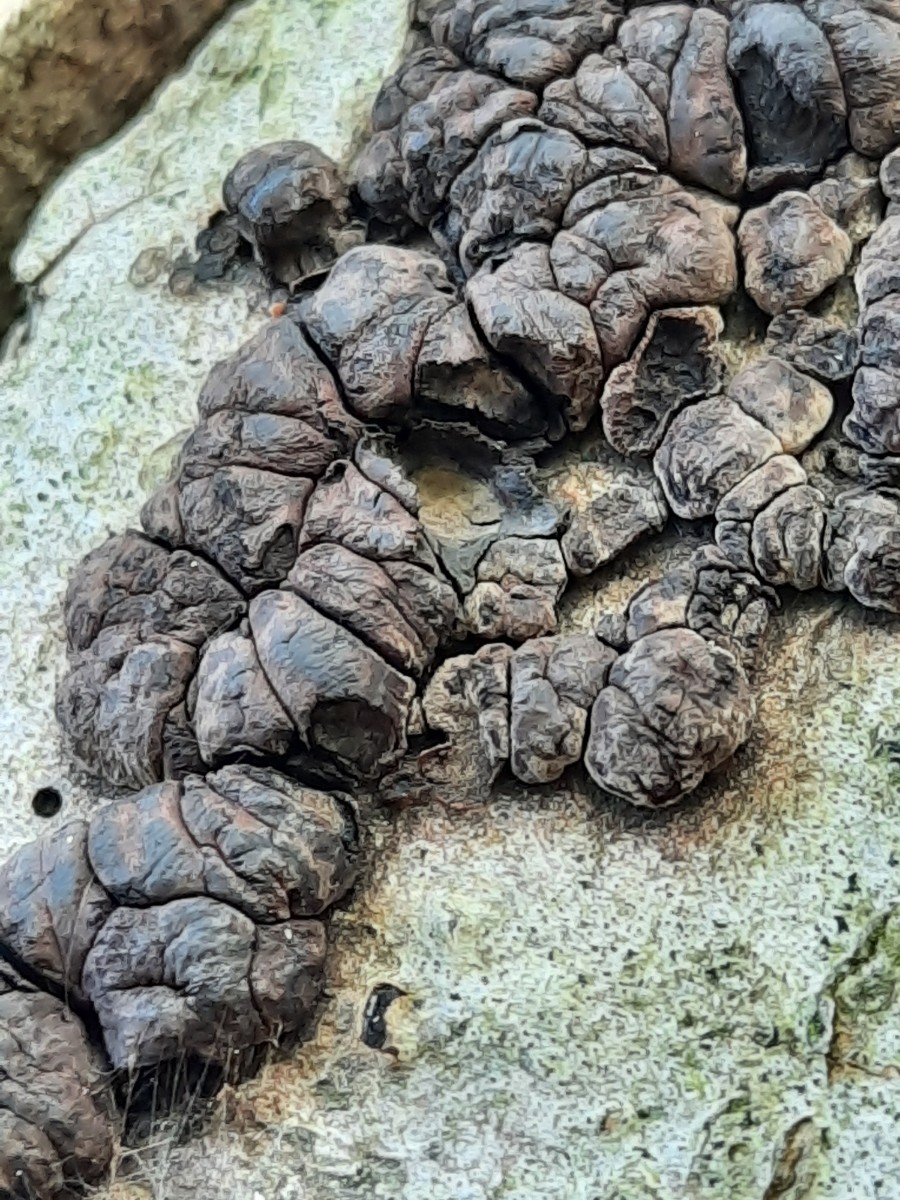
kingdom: Fungi
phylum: Ascomycota
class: Sordariomycetes
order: Xylariales
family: Hypoxylaceae
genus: Jackrogersella
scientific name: Jackrogersella cohaerens
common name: sammenflydende kulbær
